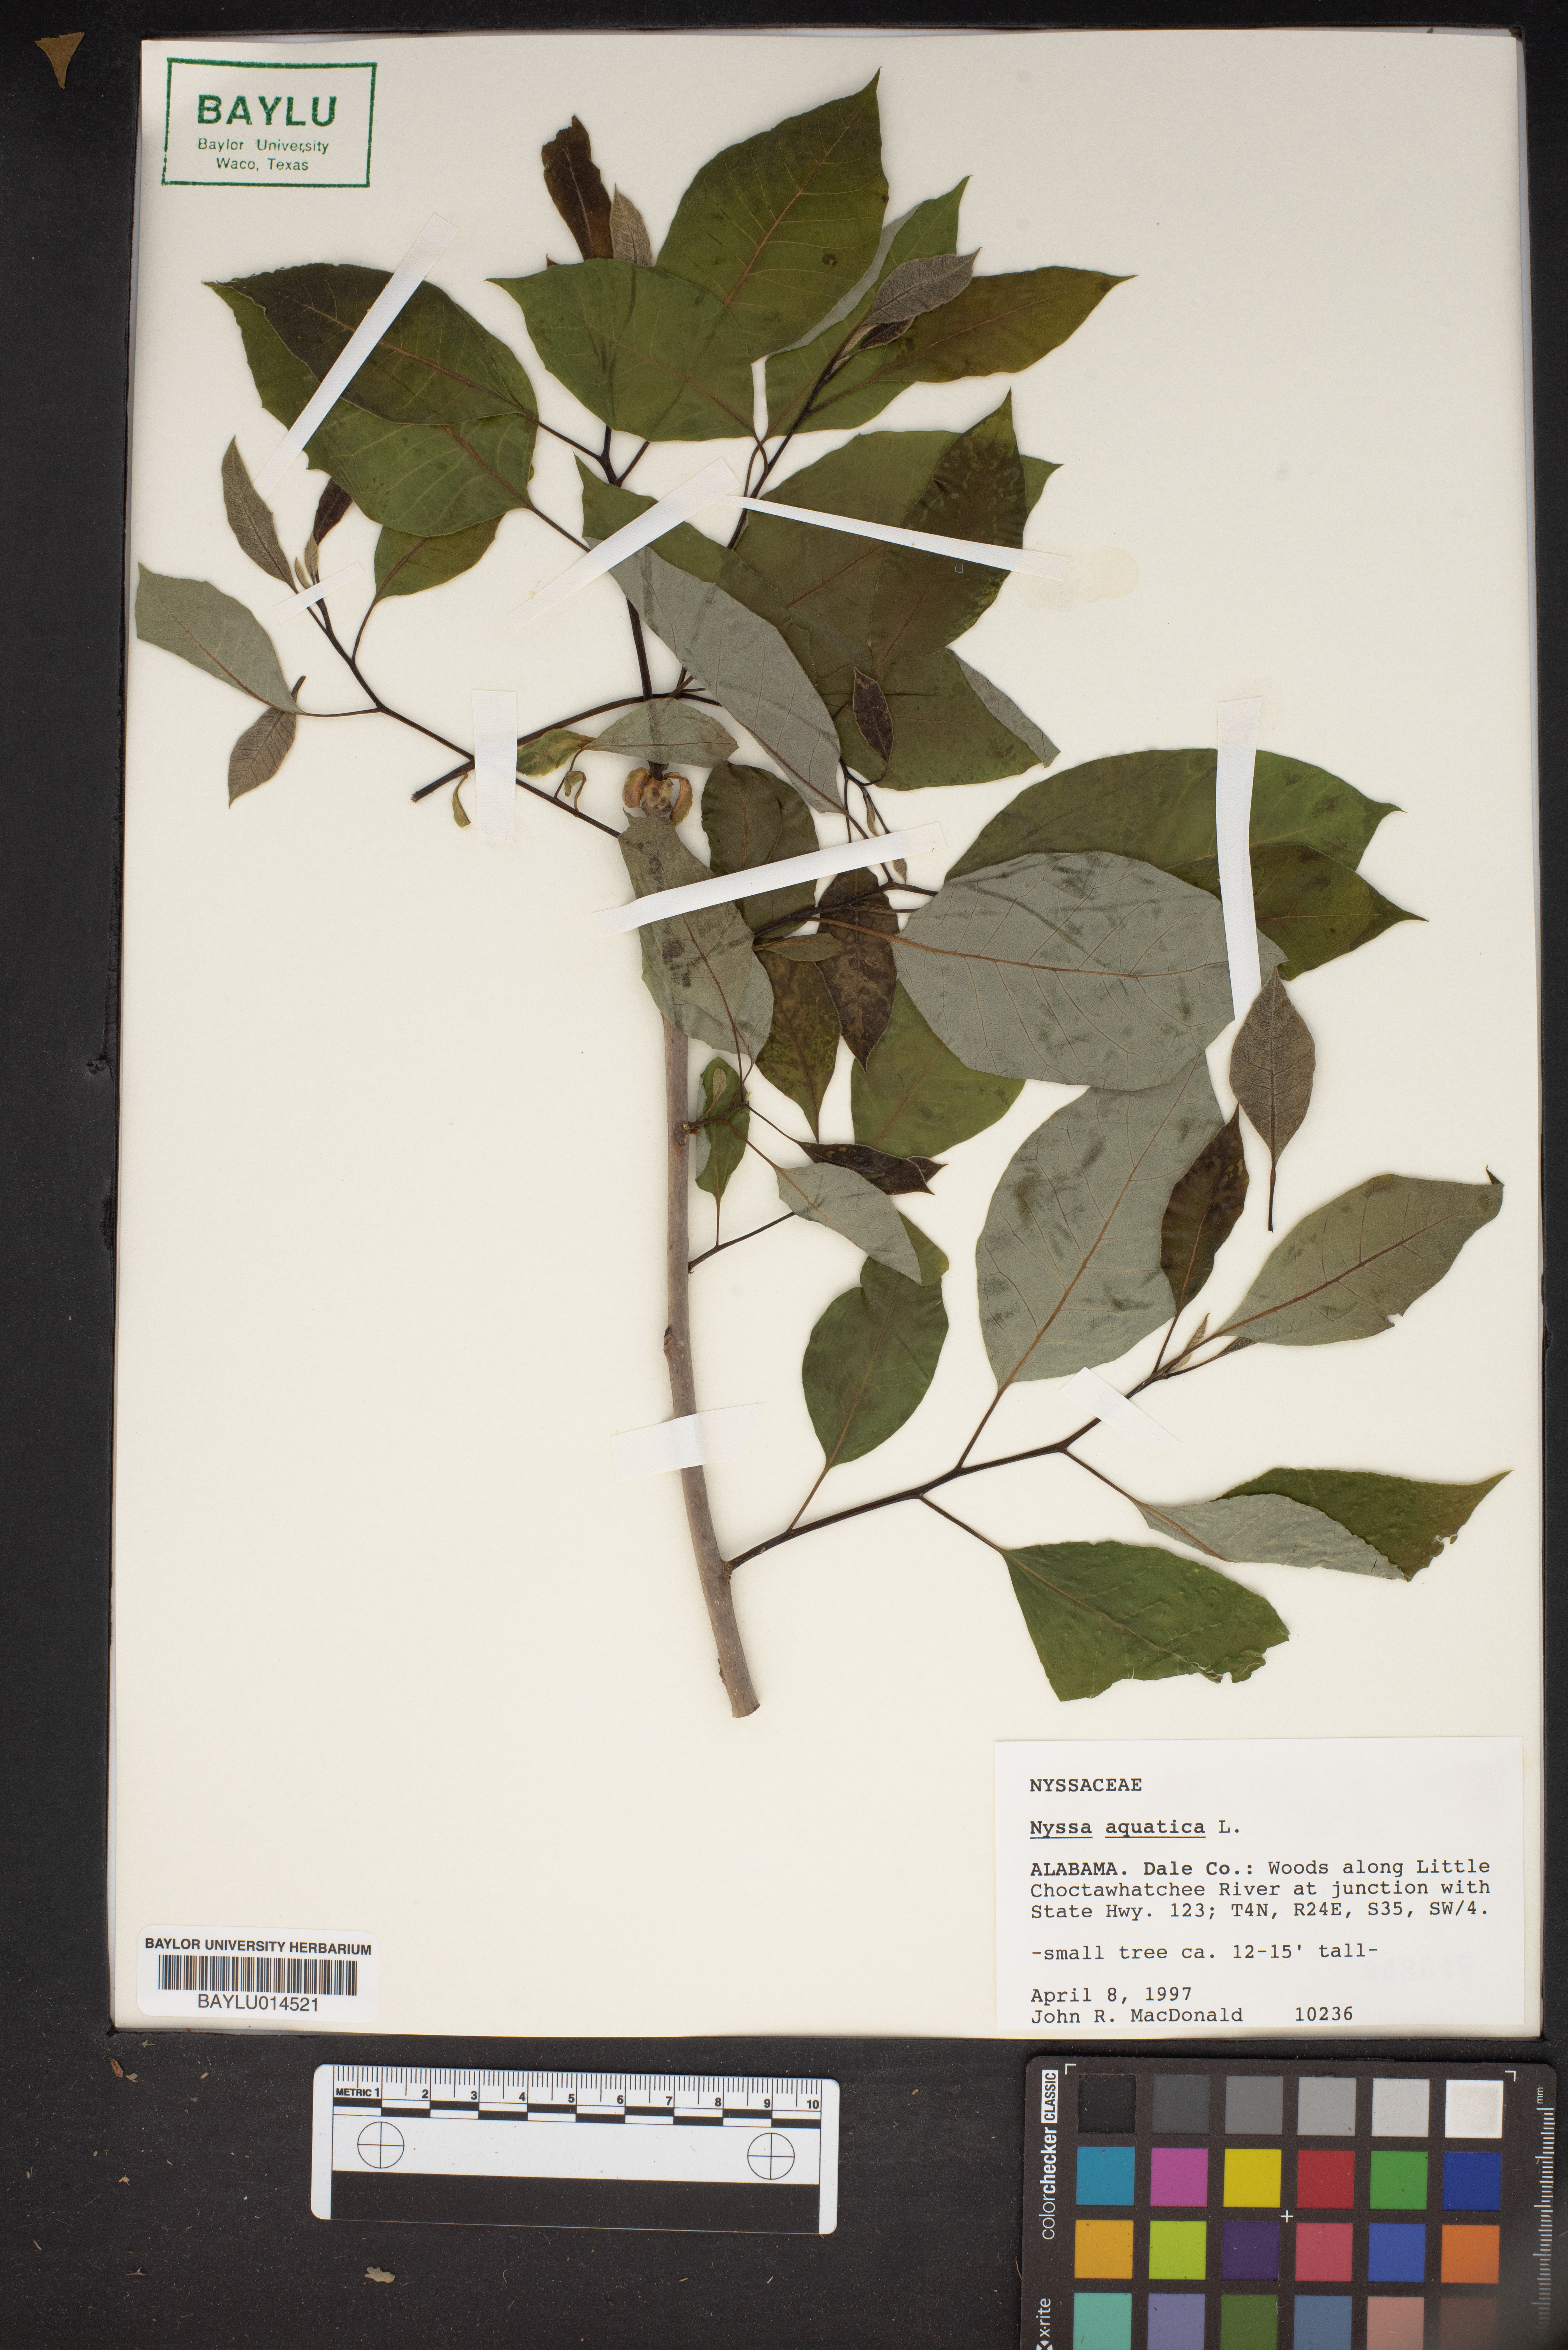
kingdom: Plantae
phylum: Tracheophyta
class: Magnoliopsida
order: Cornales
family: Nyssaceae
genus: Nyssa
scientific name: Nyssa aquatica
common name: Swamp tupelo
